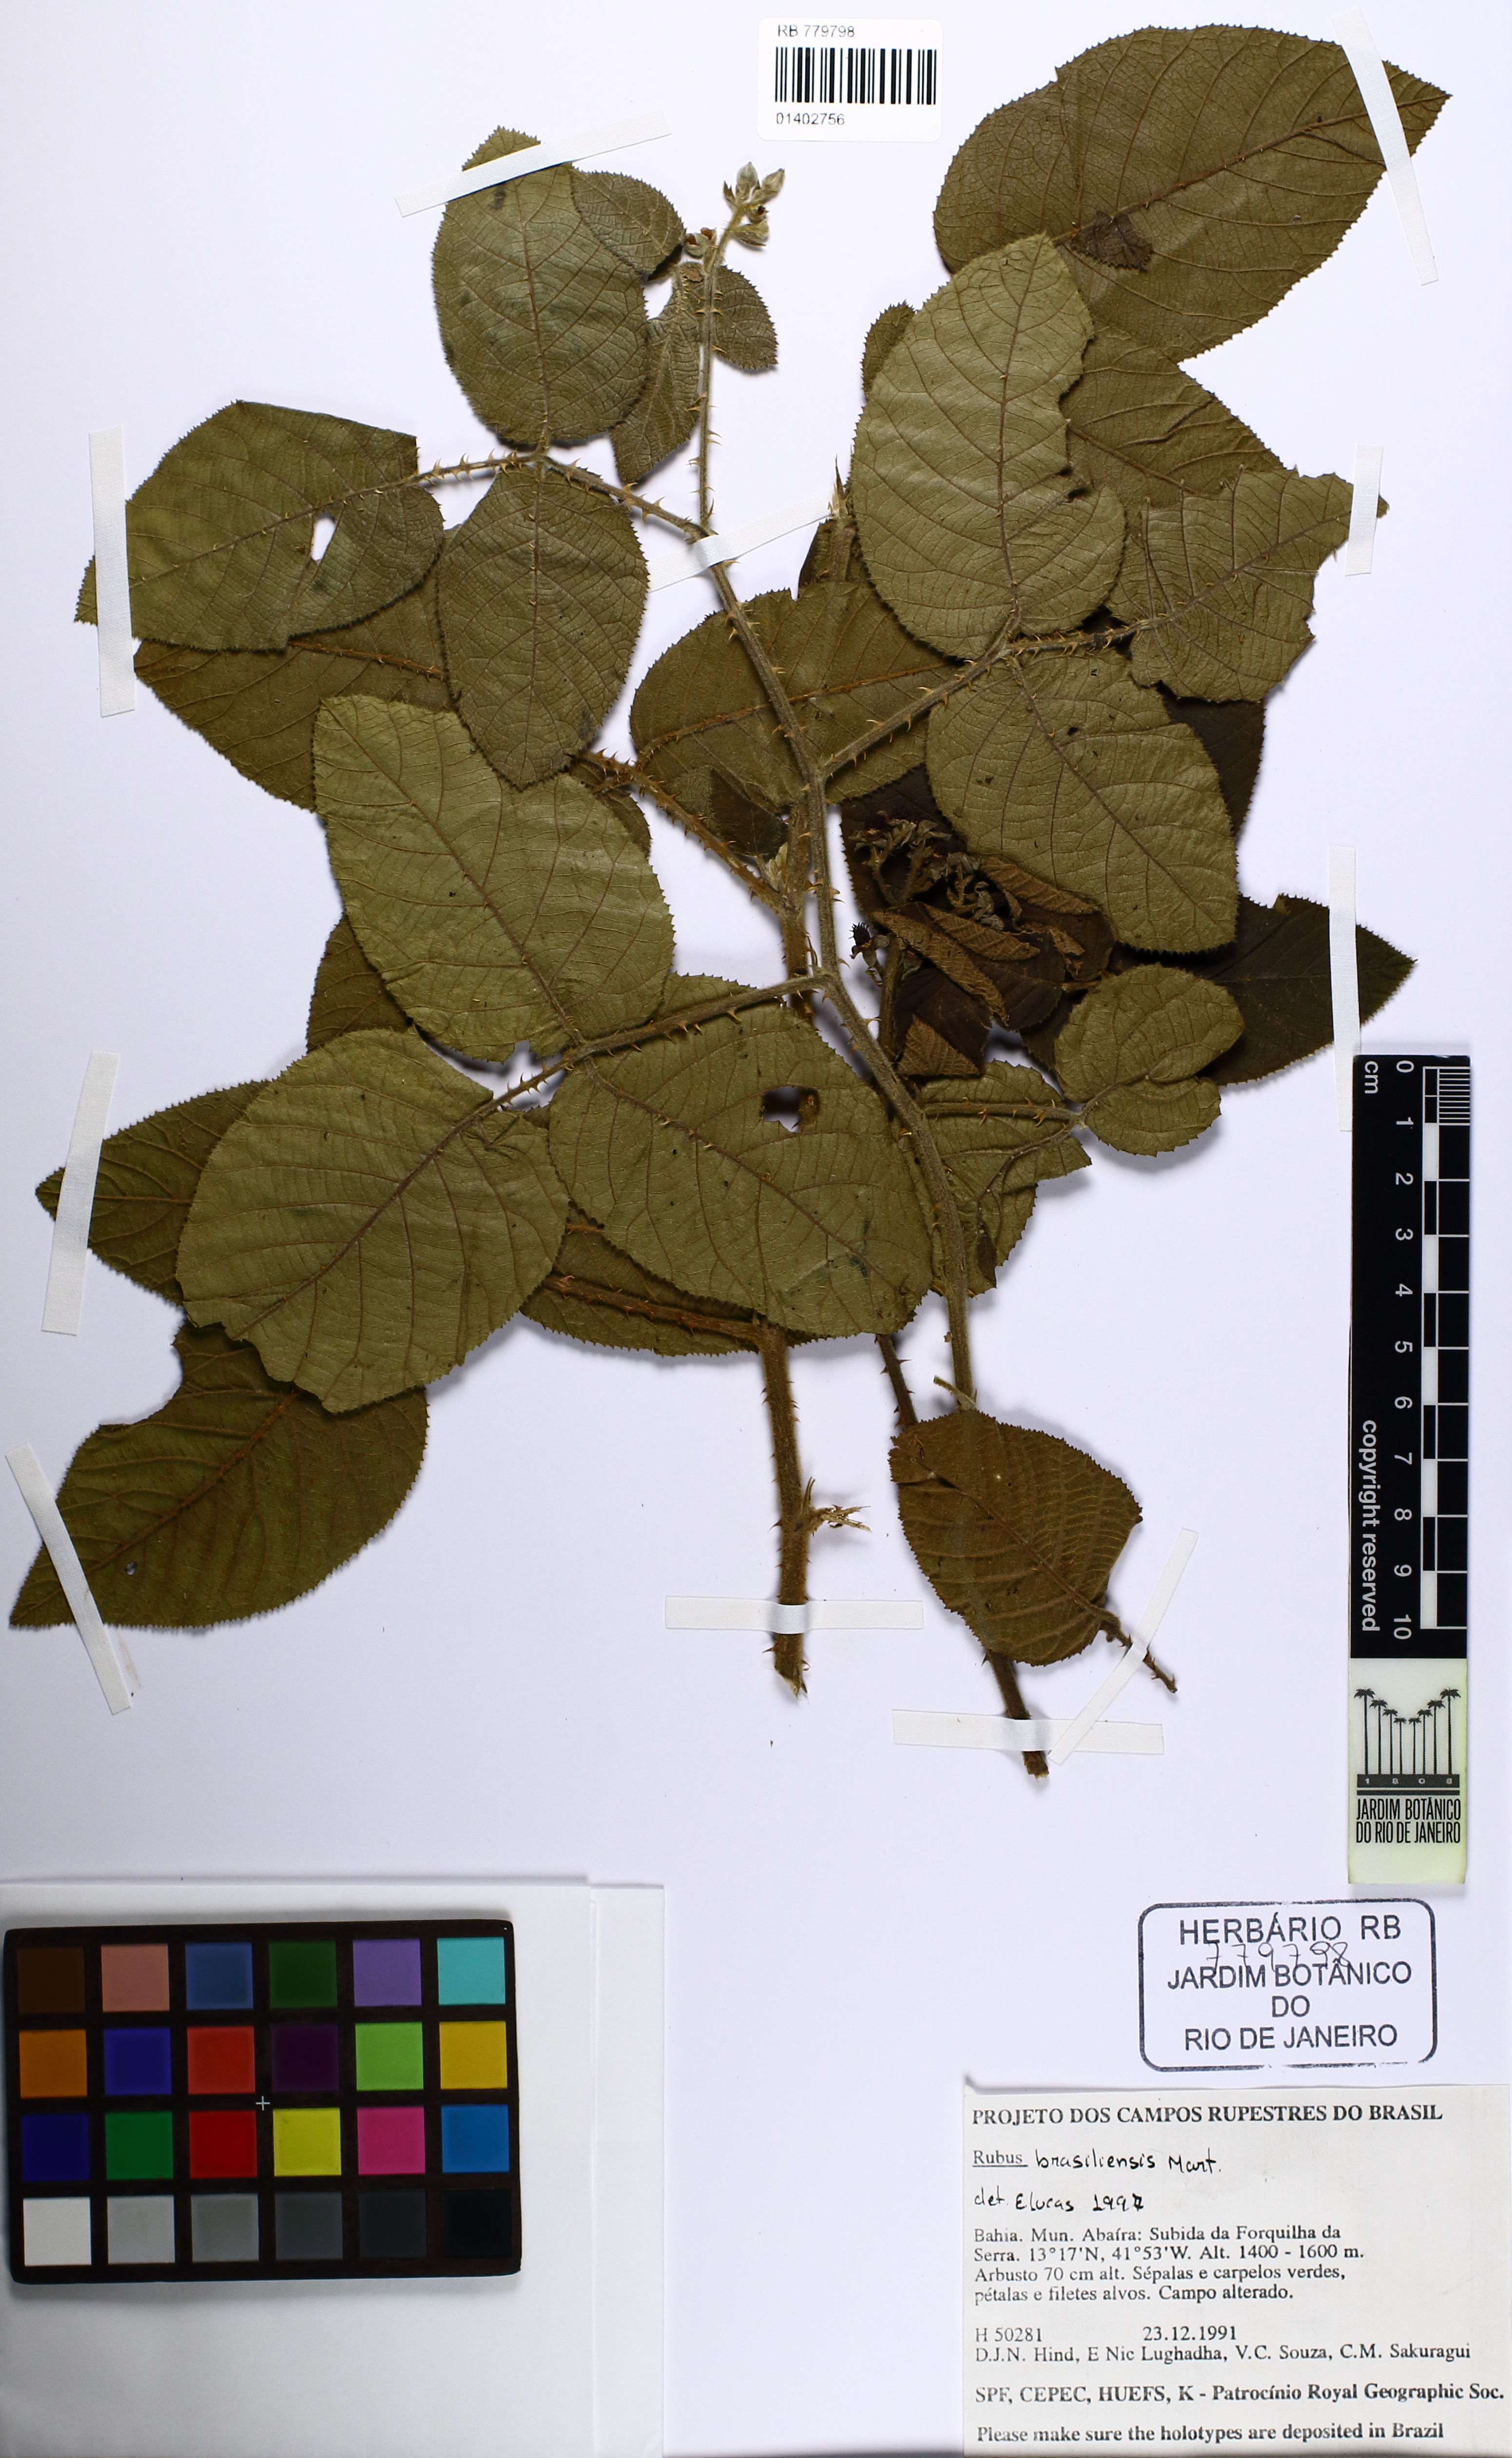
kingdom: Plantae
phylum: Tracheophyta
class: Magnoliopsida
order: Rosales
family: Rosaceae
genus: Rubus
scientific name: Rubus brasiliensis
